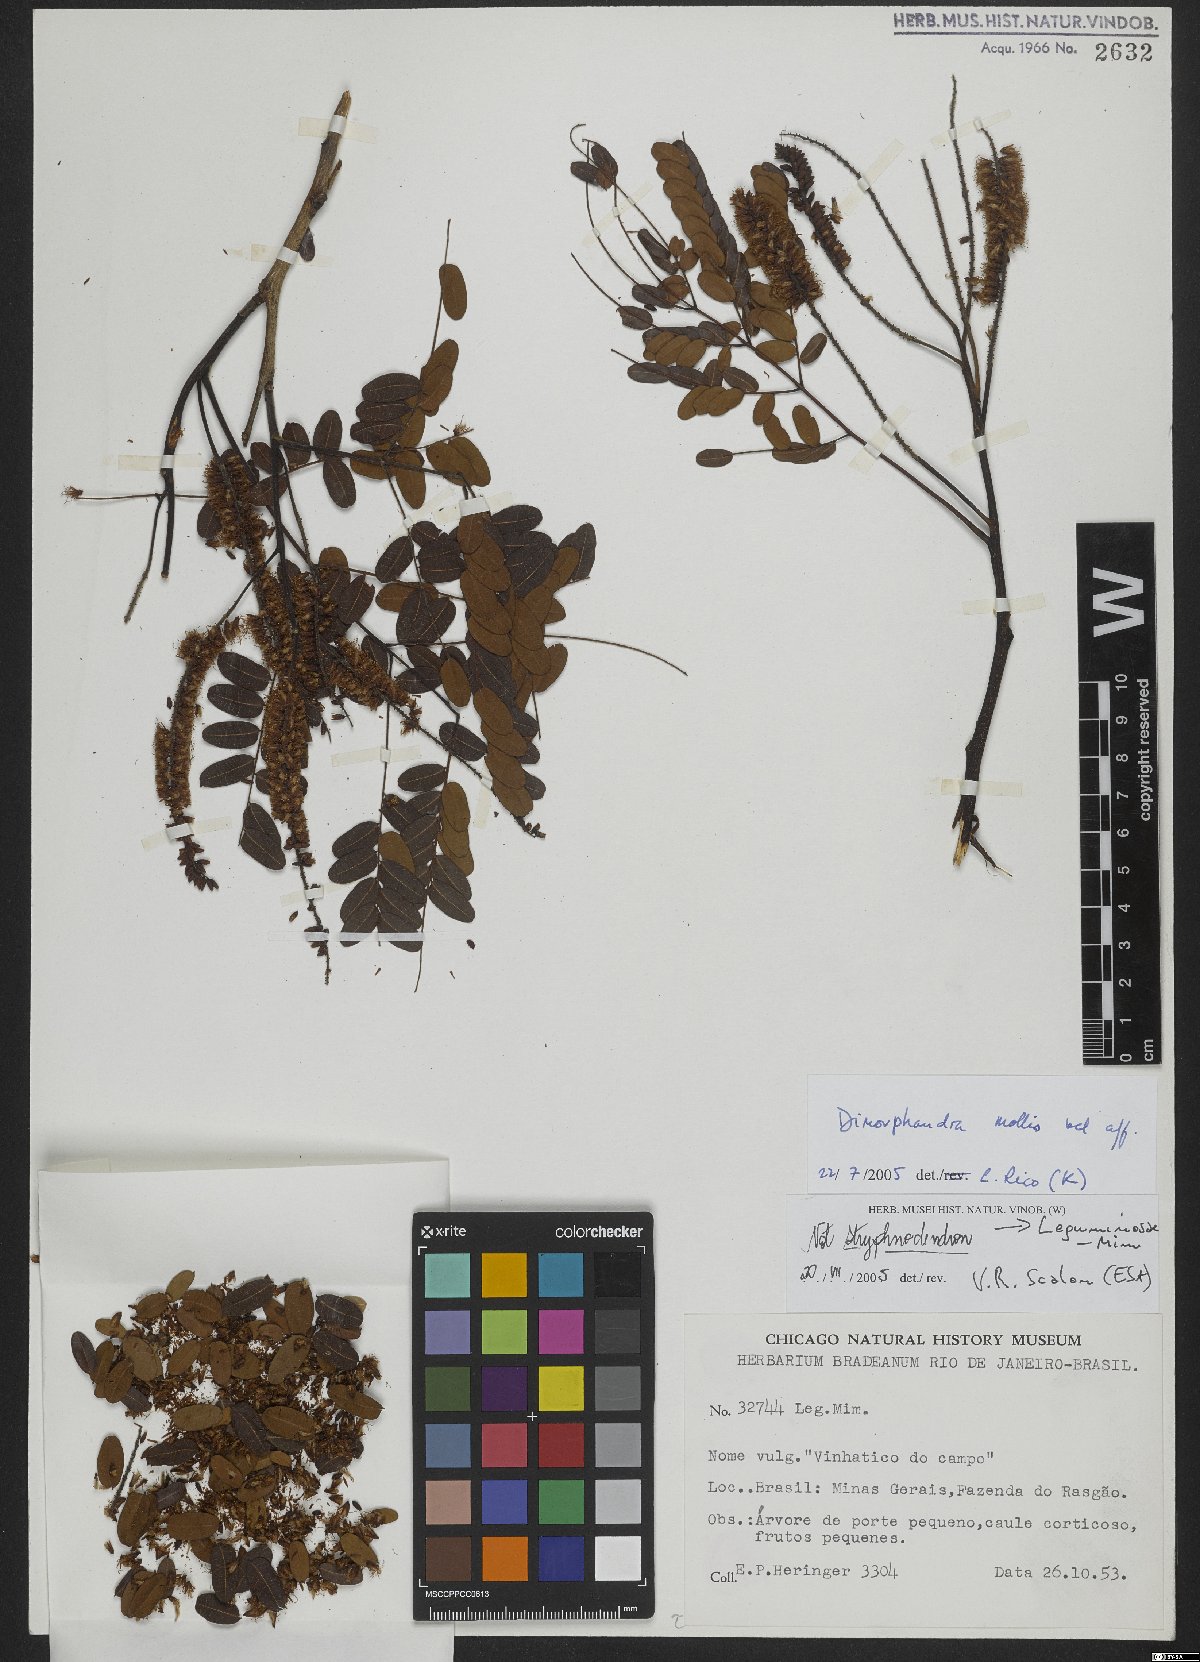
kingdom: Plantae
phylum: Tracheophyta
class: Magnoliopsida
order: Fabales
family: Fabaceae
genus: Dimorphandra
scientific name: Dimorphandra mollis
